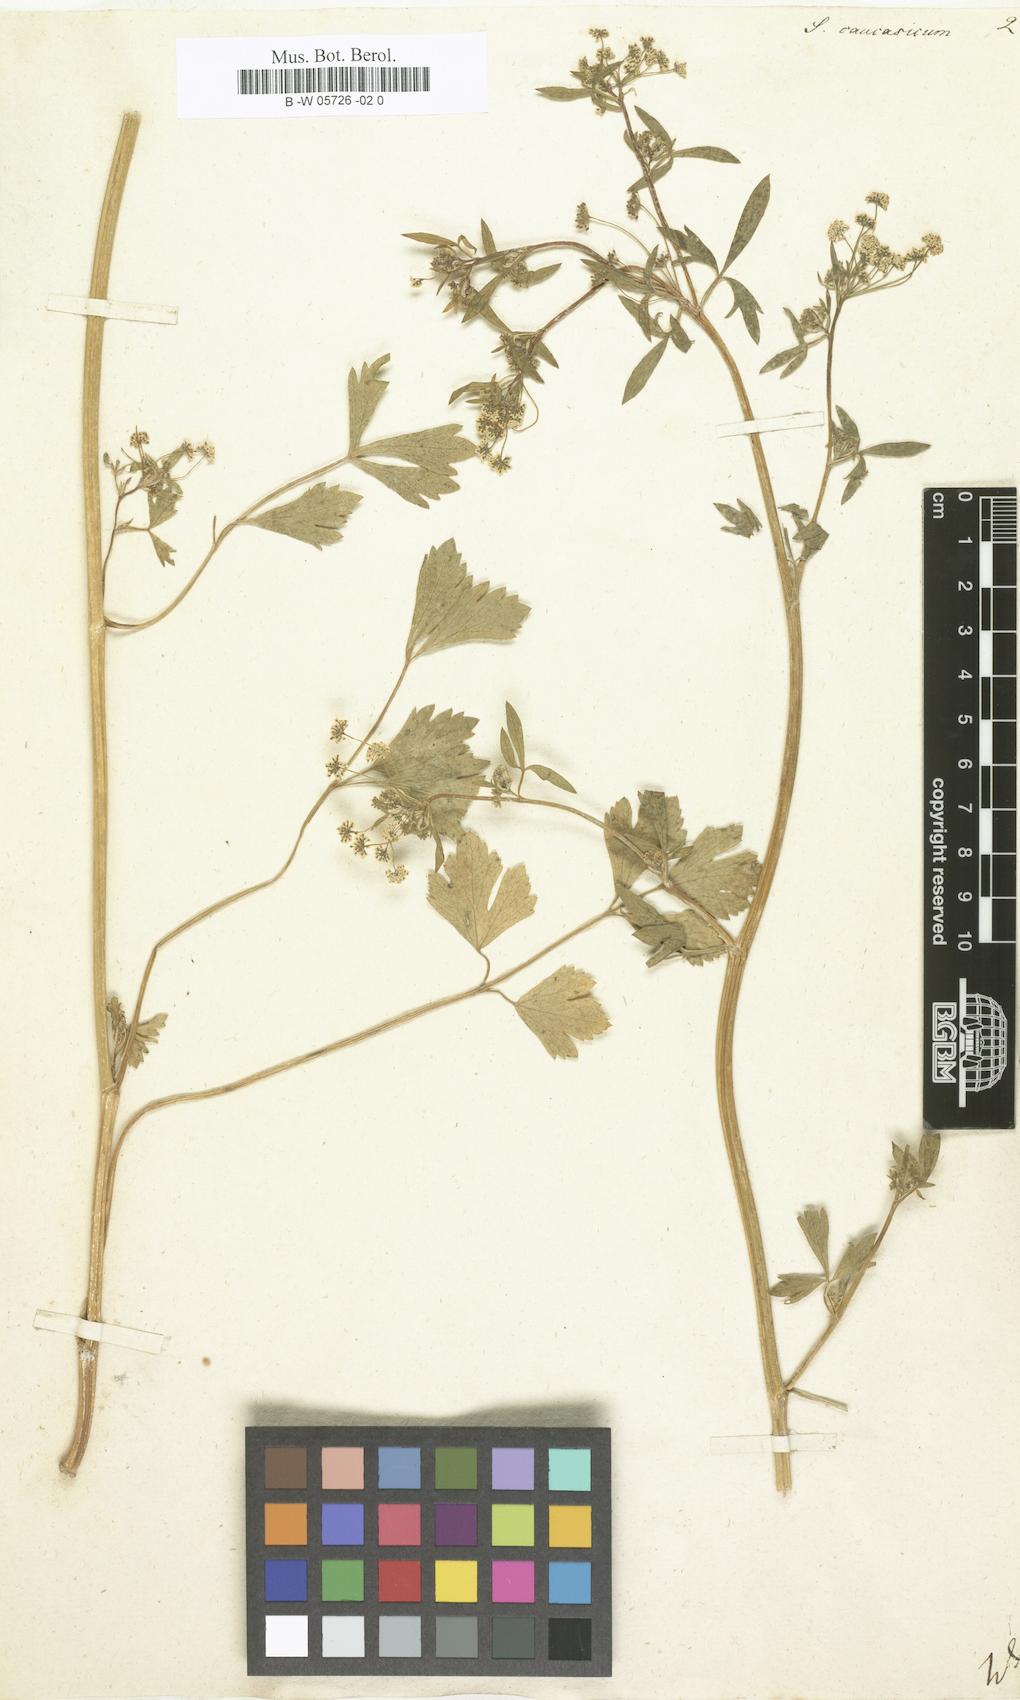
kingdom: Plantae
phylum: Tracheophyta
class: Magnoliopsida
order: Apiales
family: Apiaceae
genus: Dichoropetalum
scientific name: Dichoropetalum caucasicum
